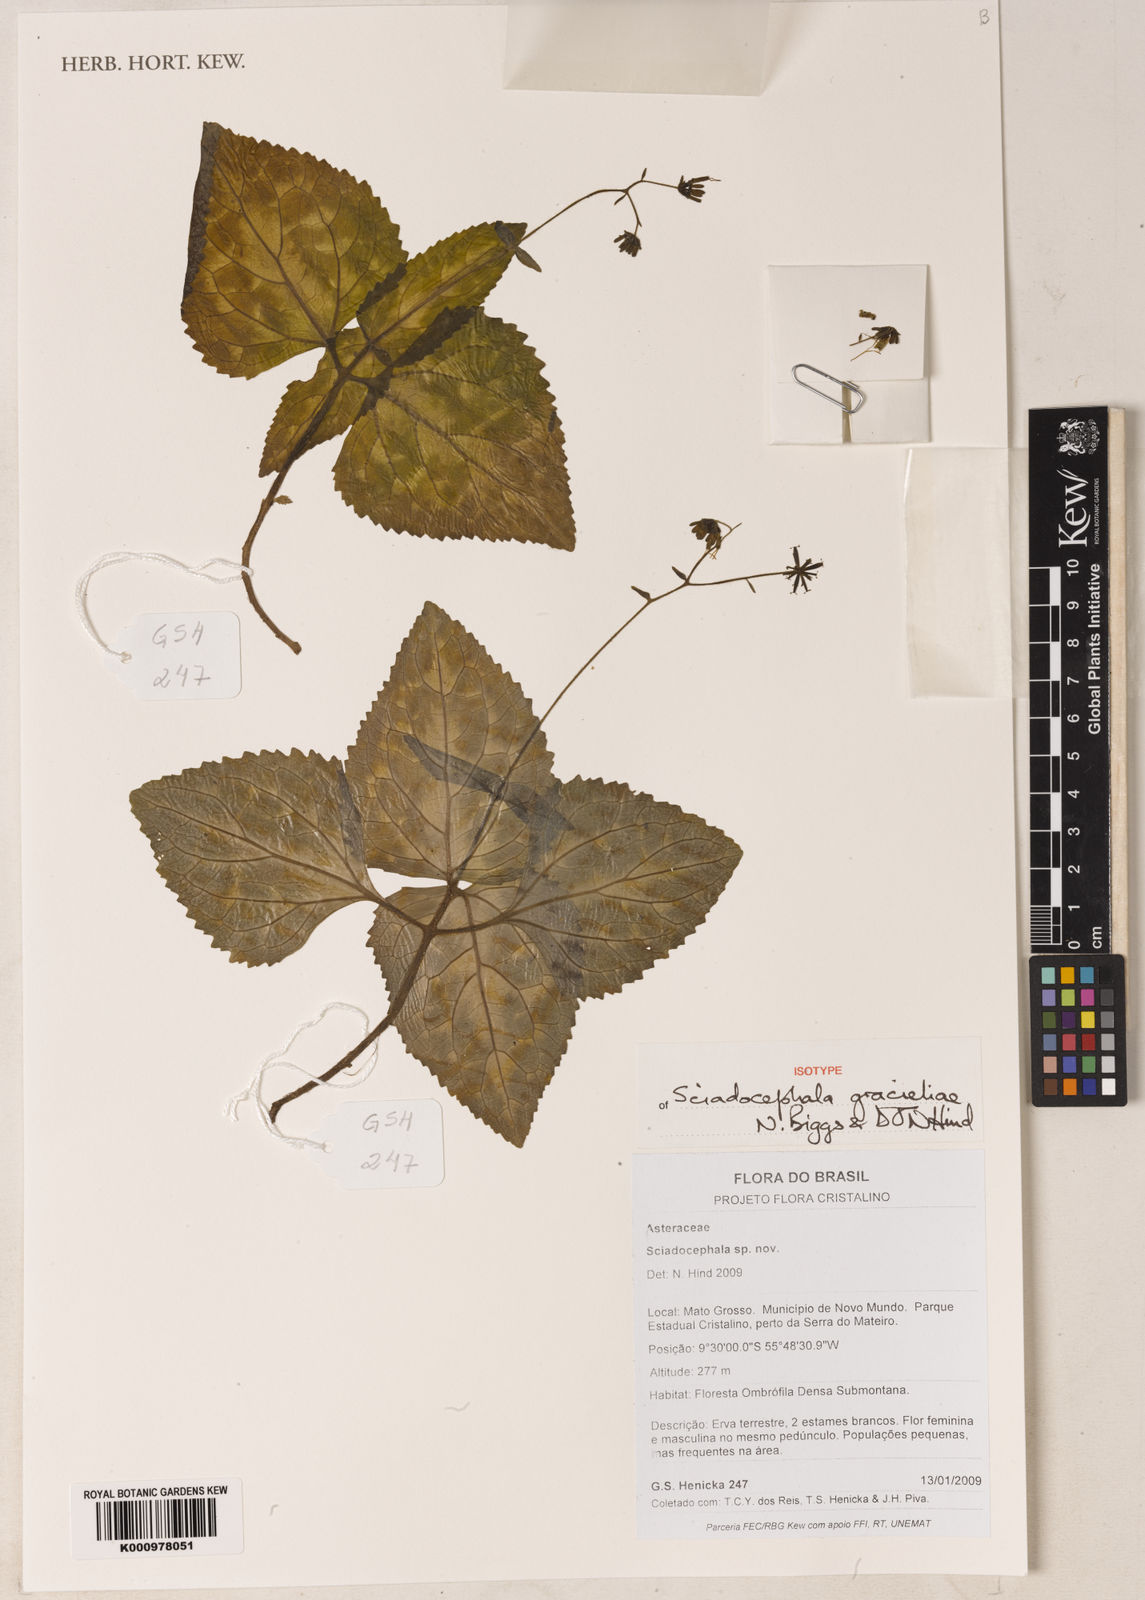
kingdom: Plantae
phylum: Tracheophyta
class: Magnoliopsida
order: Asterales
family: Asteraceae
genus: Sciadocephala
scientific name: Sciadocephala gracieliae
